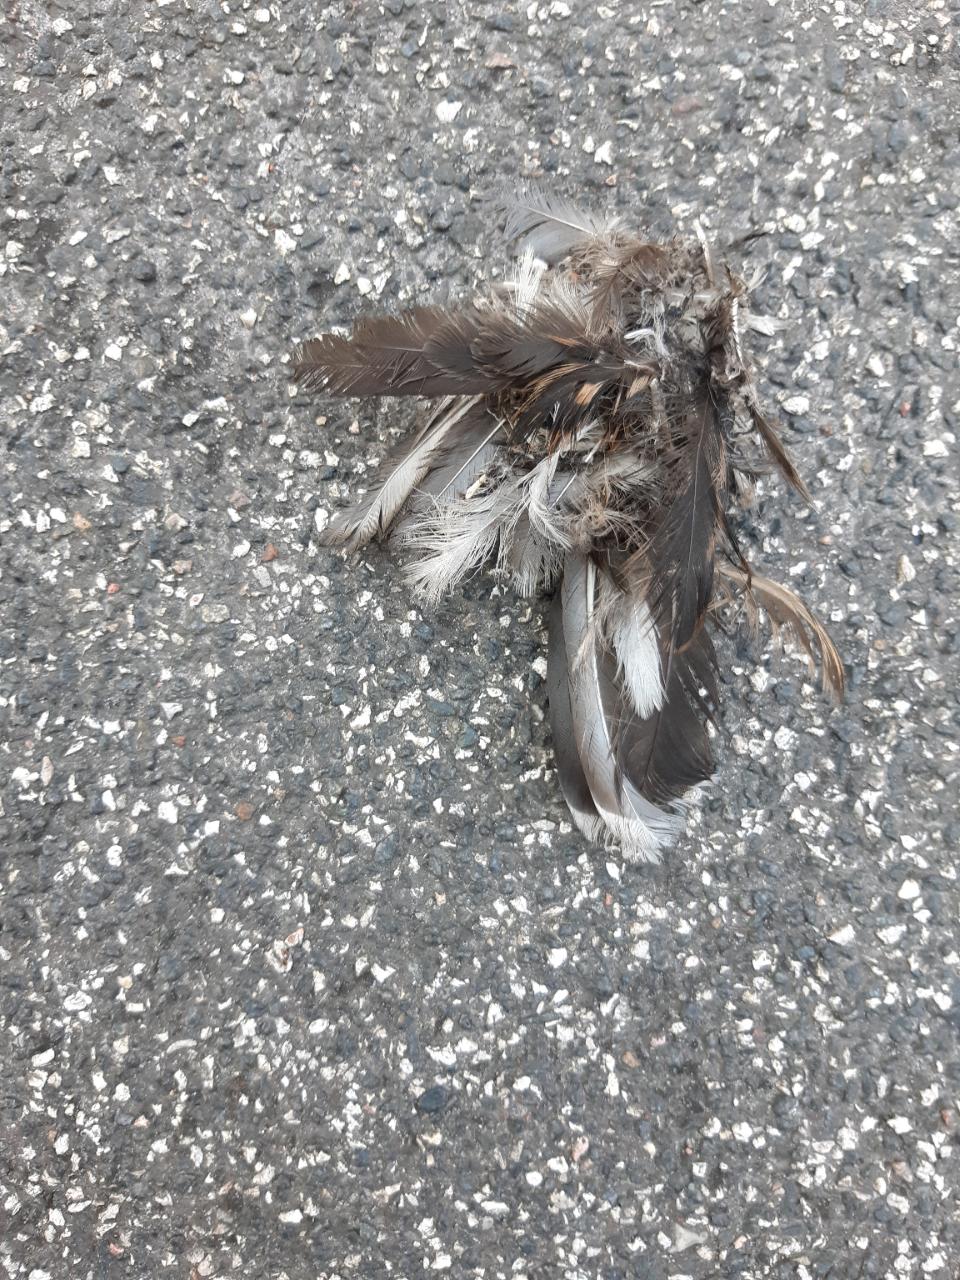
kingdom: Animalia
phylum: Chordata
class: Aves
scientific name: Aves
